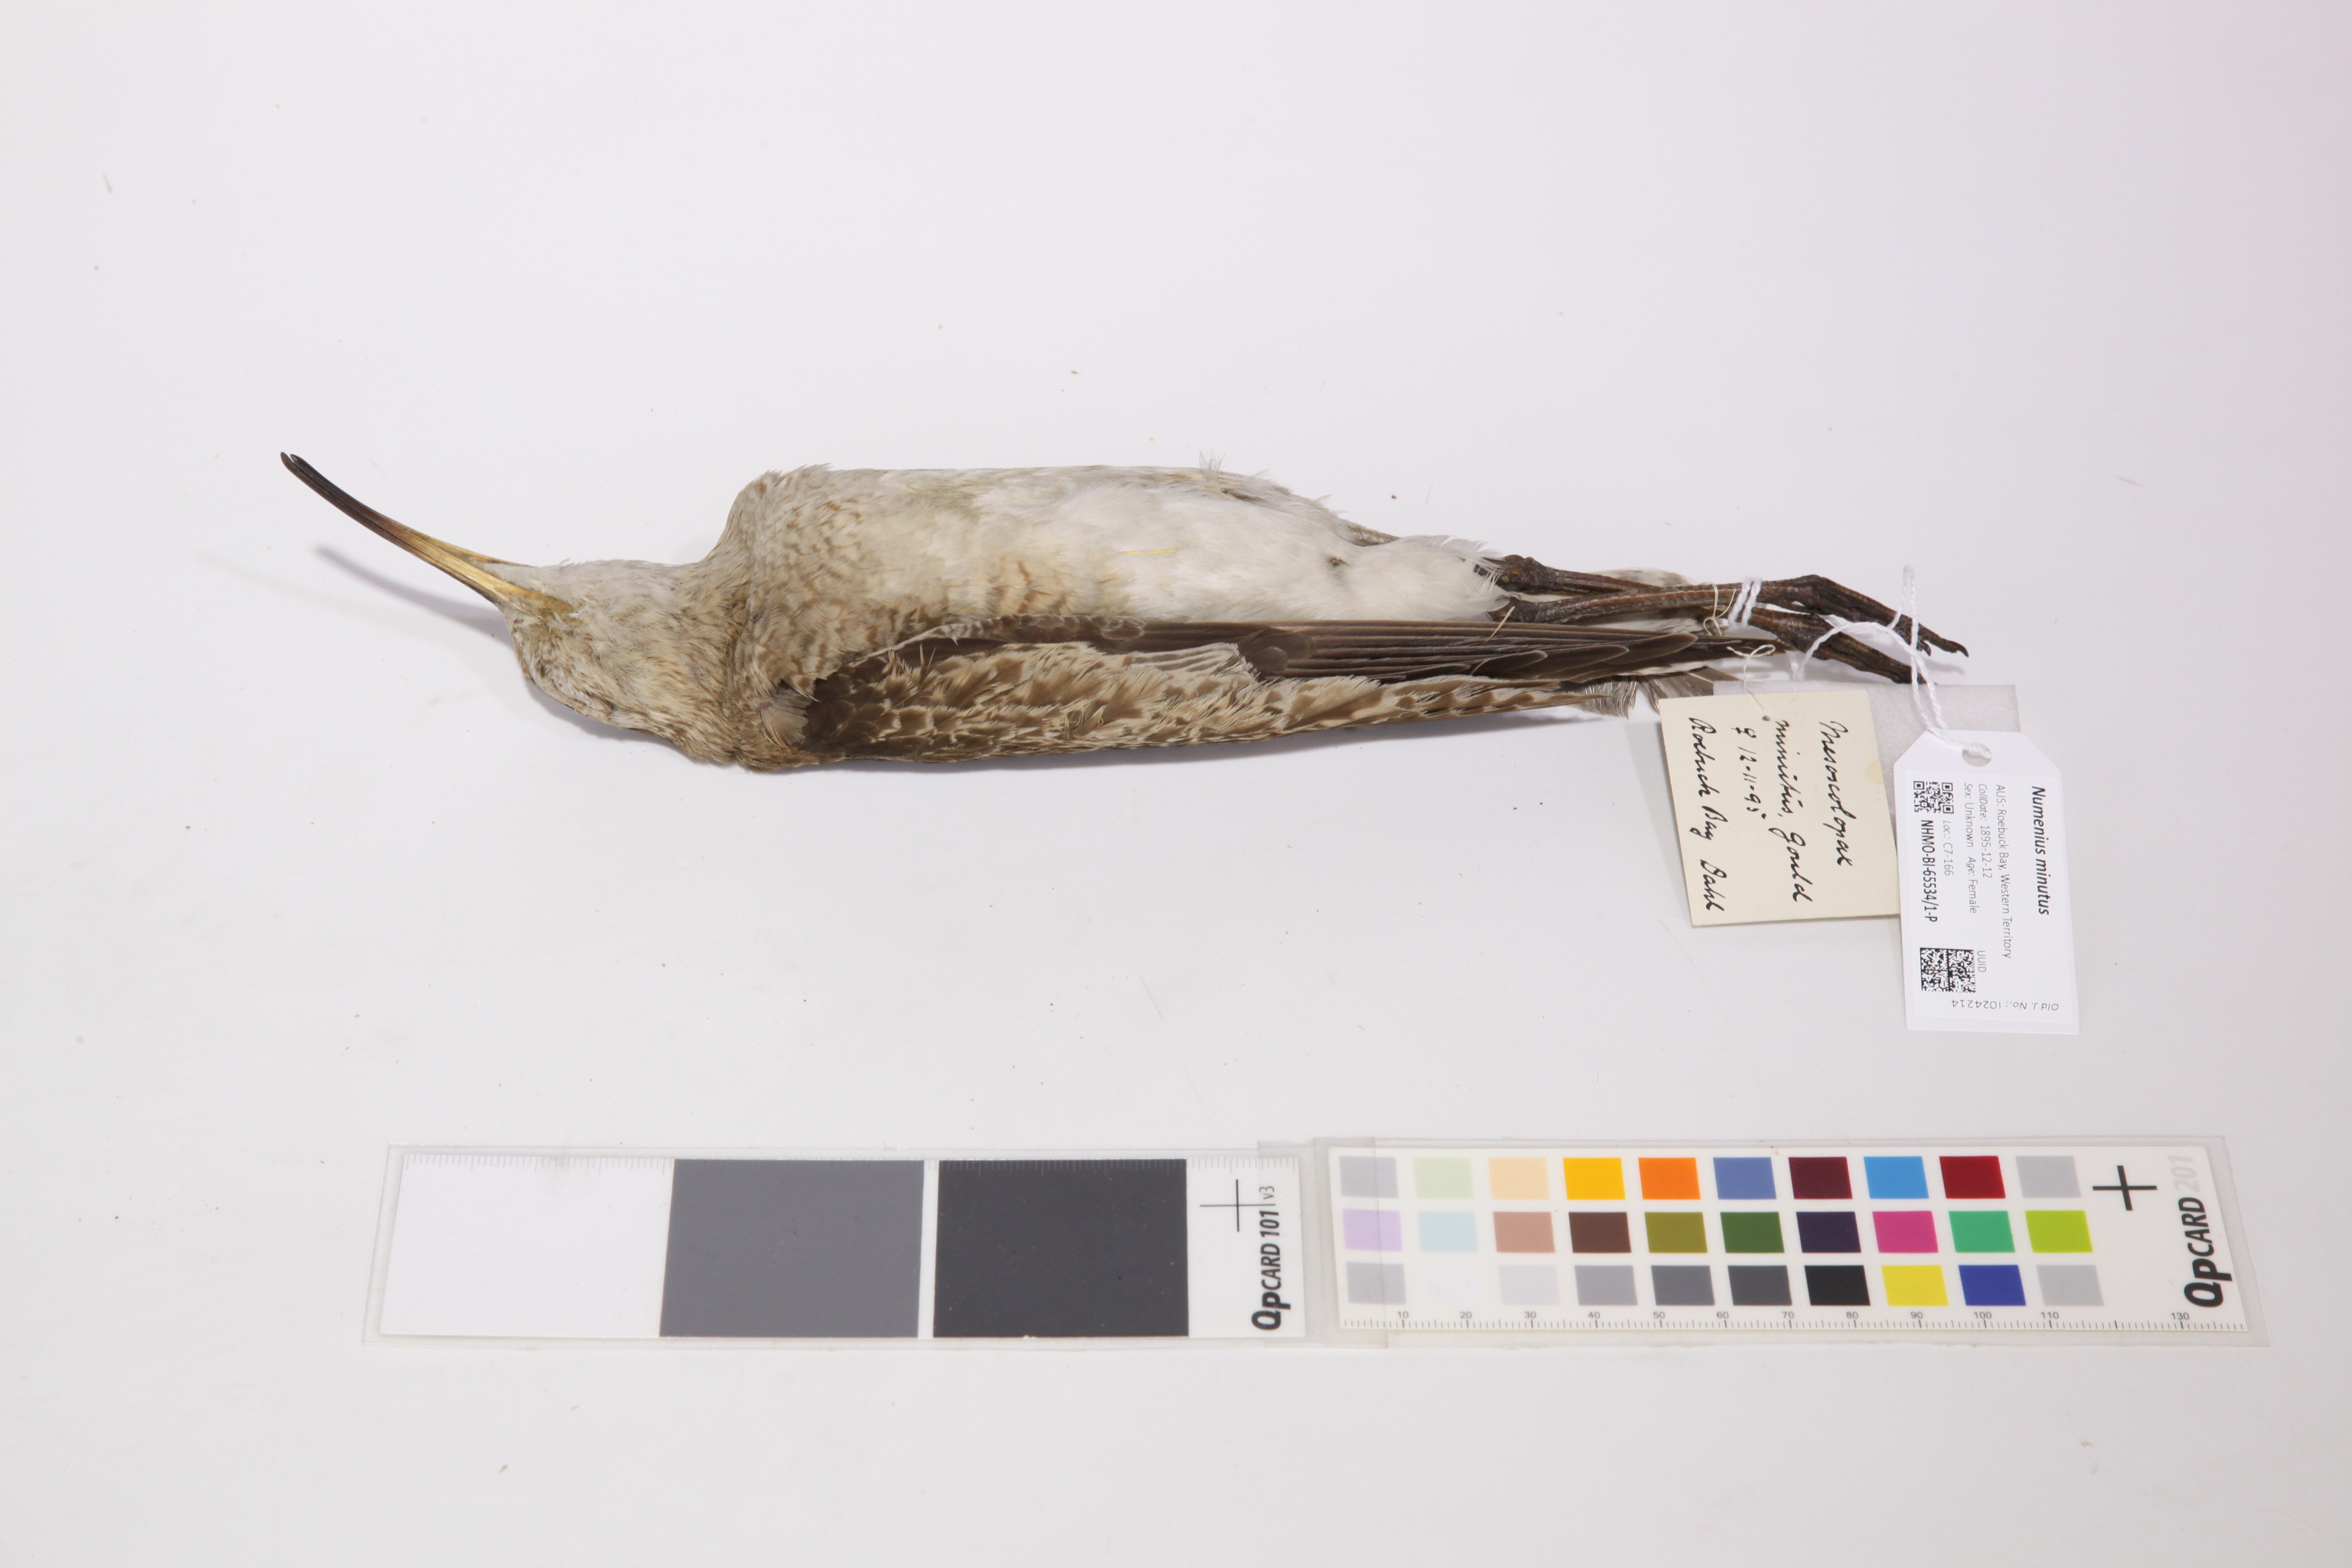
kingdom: Animalia
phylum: Chordata
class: Aves
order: Charadriiformes
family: Scolopacidae
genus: Numenius
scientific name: Numenius minutus
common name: Little curlew
